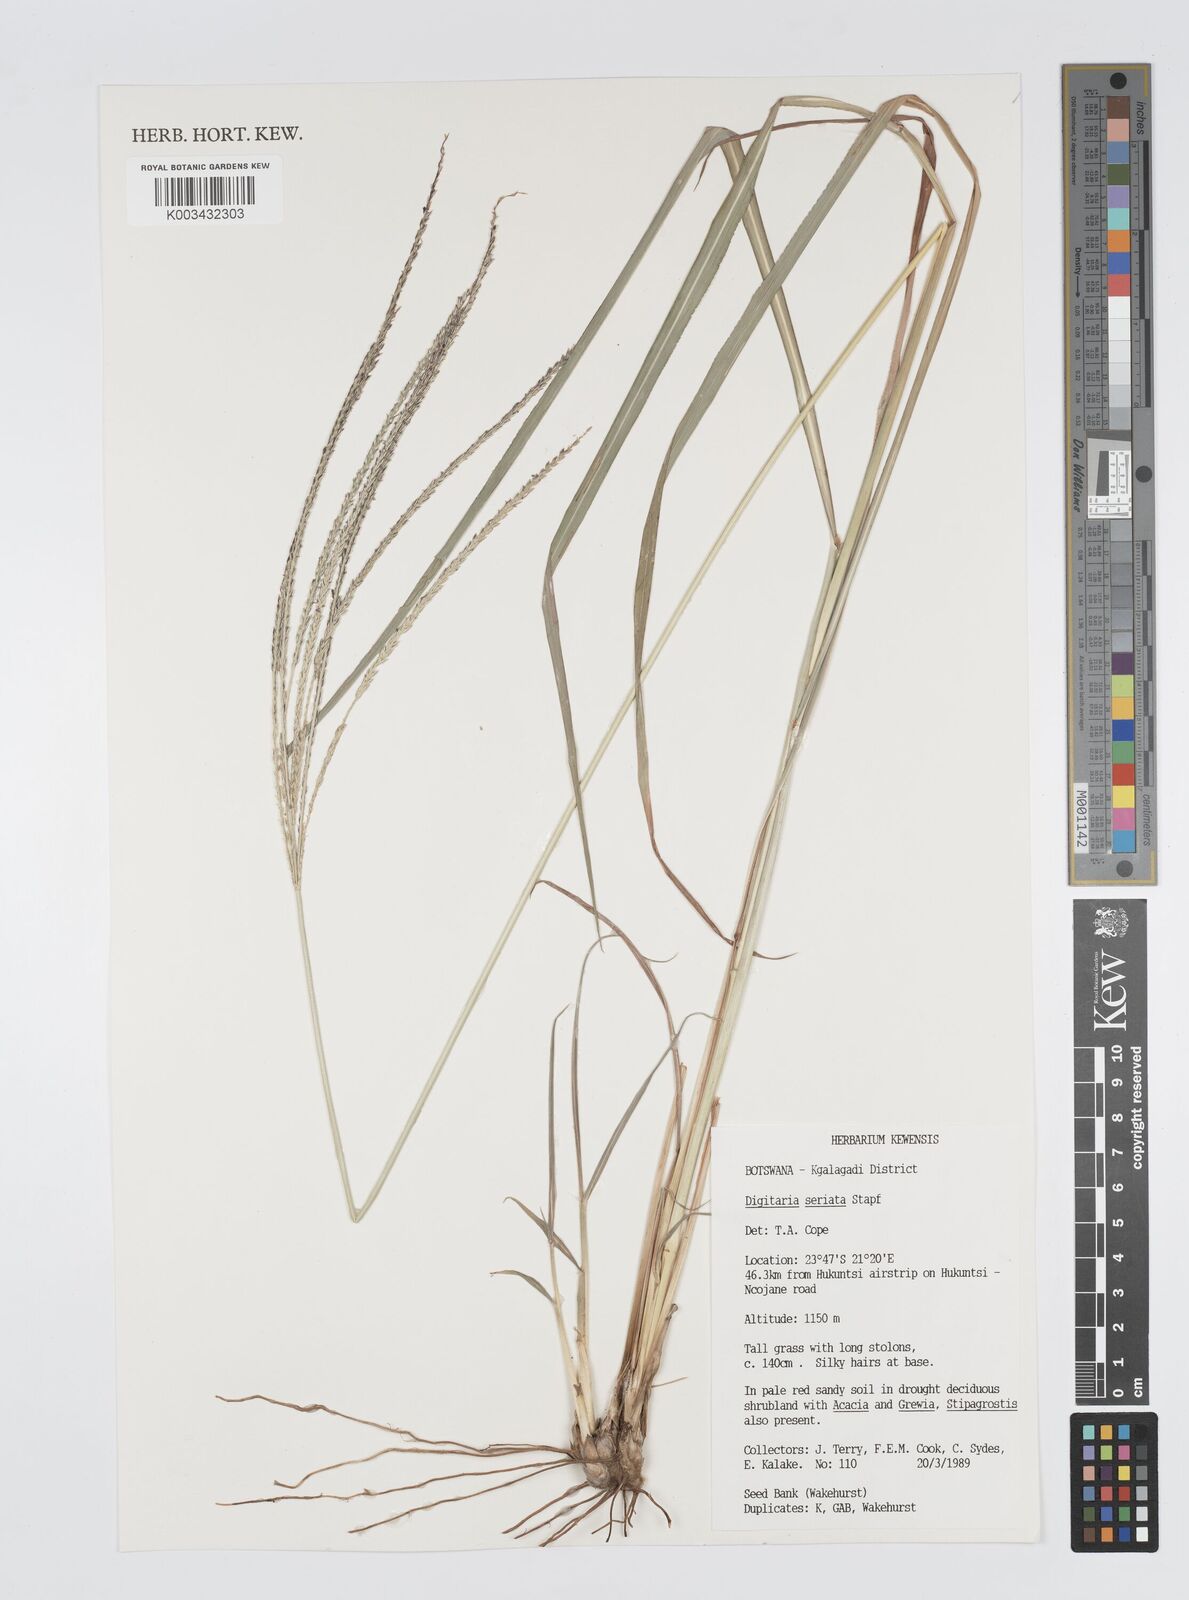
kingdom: Plantae
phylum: Tracheophyta
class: Liliopsida
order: Poales
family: Poaceae
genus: Digitaria
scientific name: Digitaria seriata
